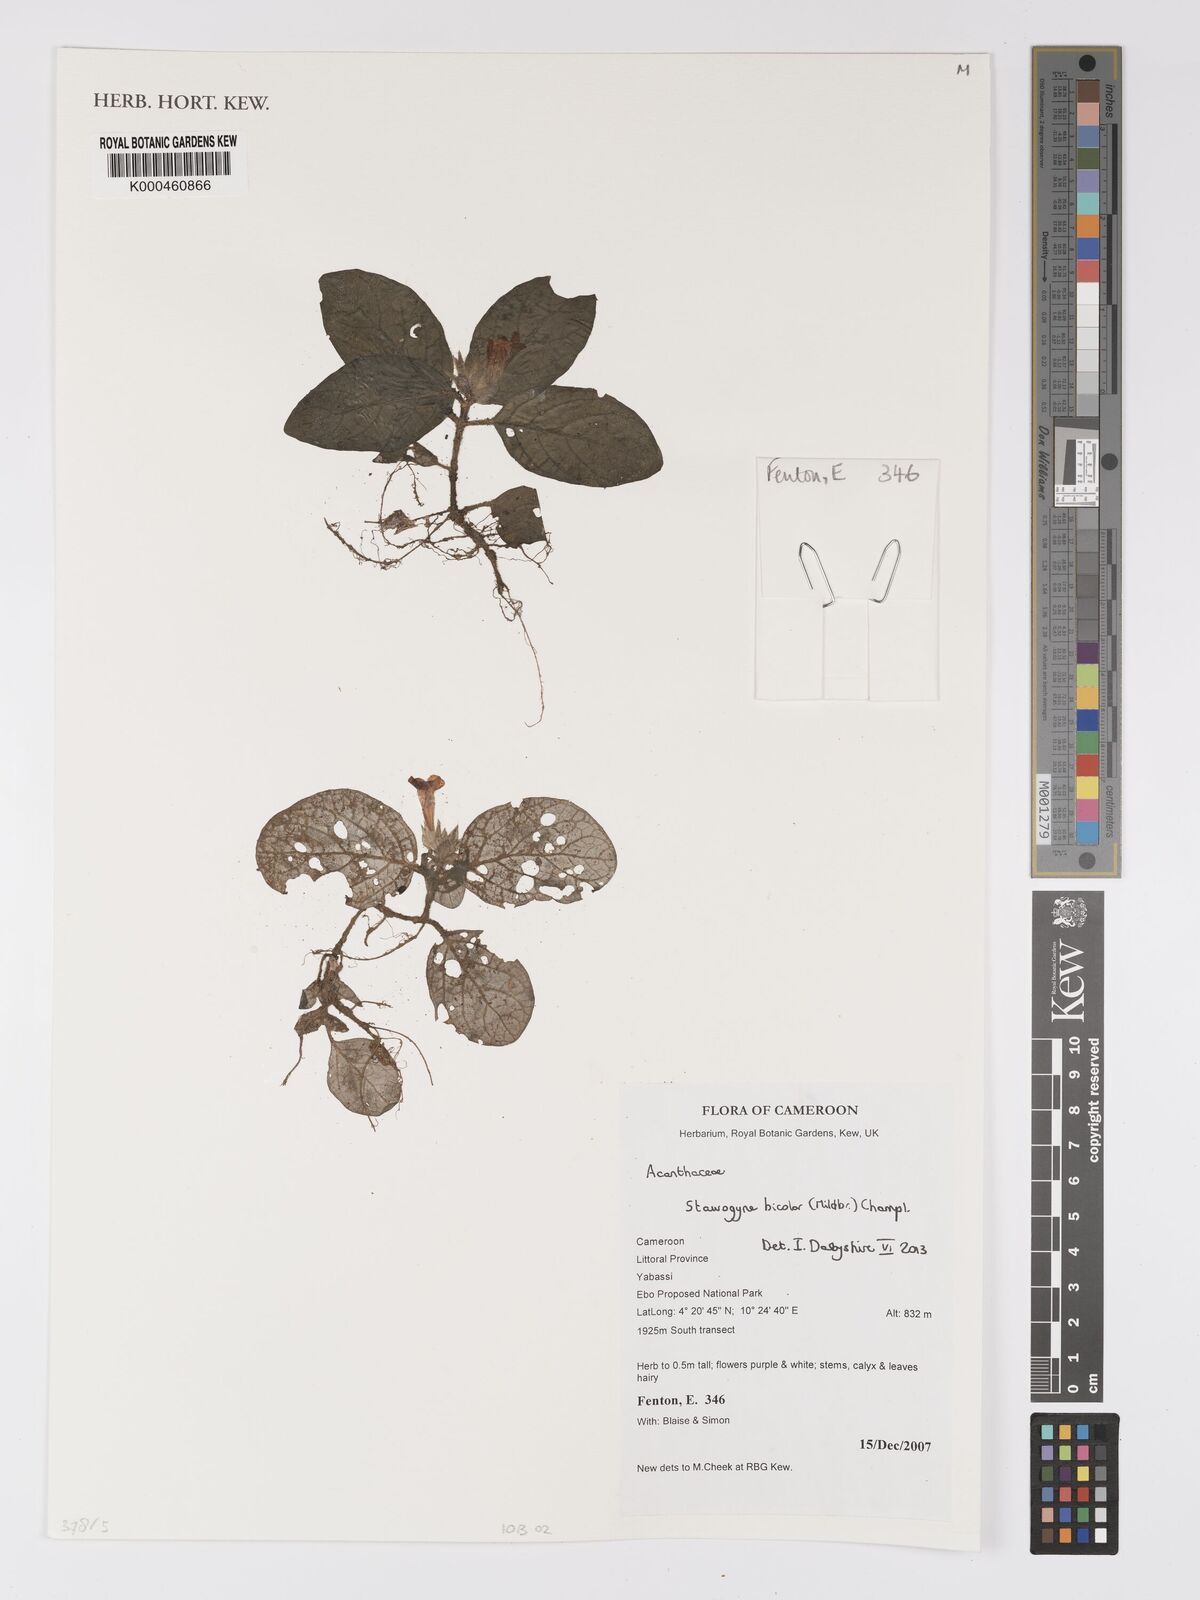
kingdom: Plantae
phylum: Tracheophyta
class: Magnoliopsida
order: Lamiales
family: Acanthaceae
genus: Staurogyne
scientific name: Staurogyne bicolor
